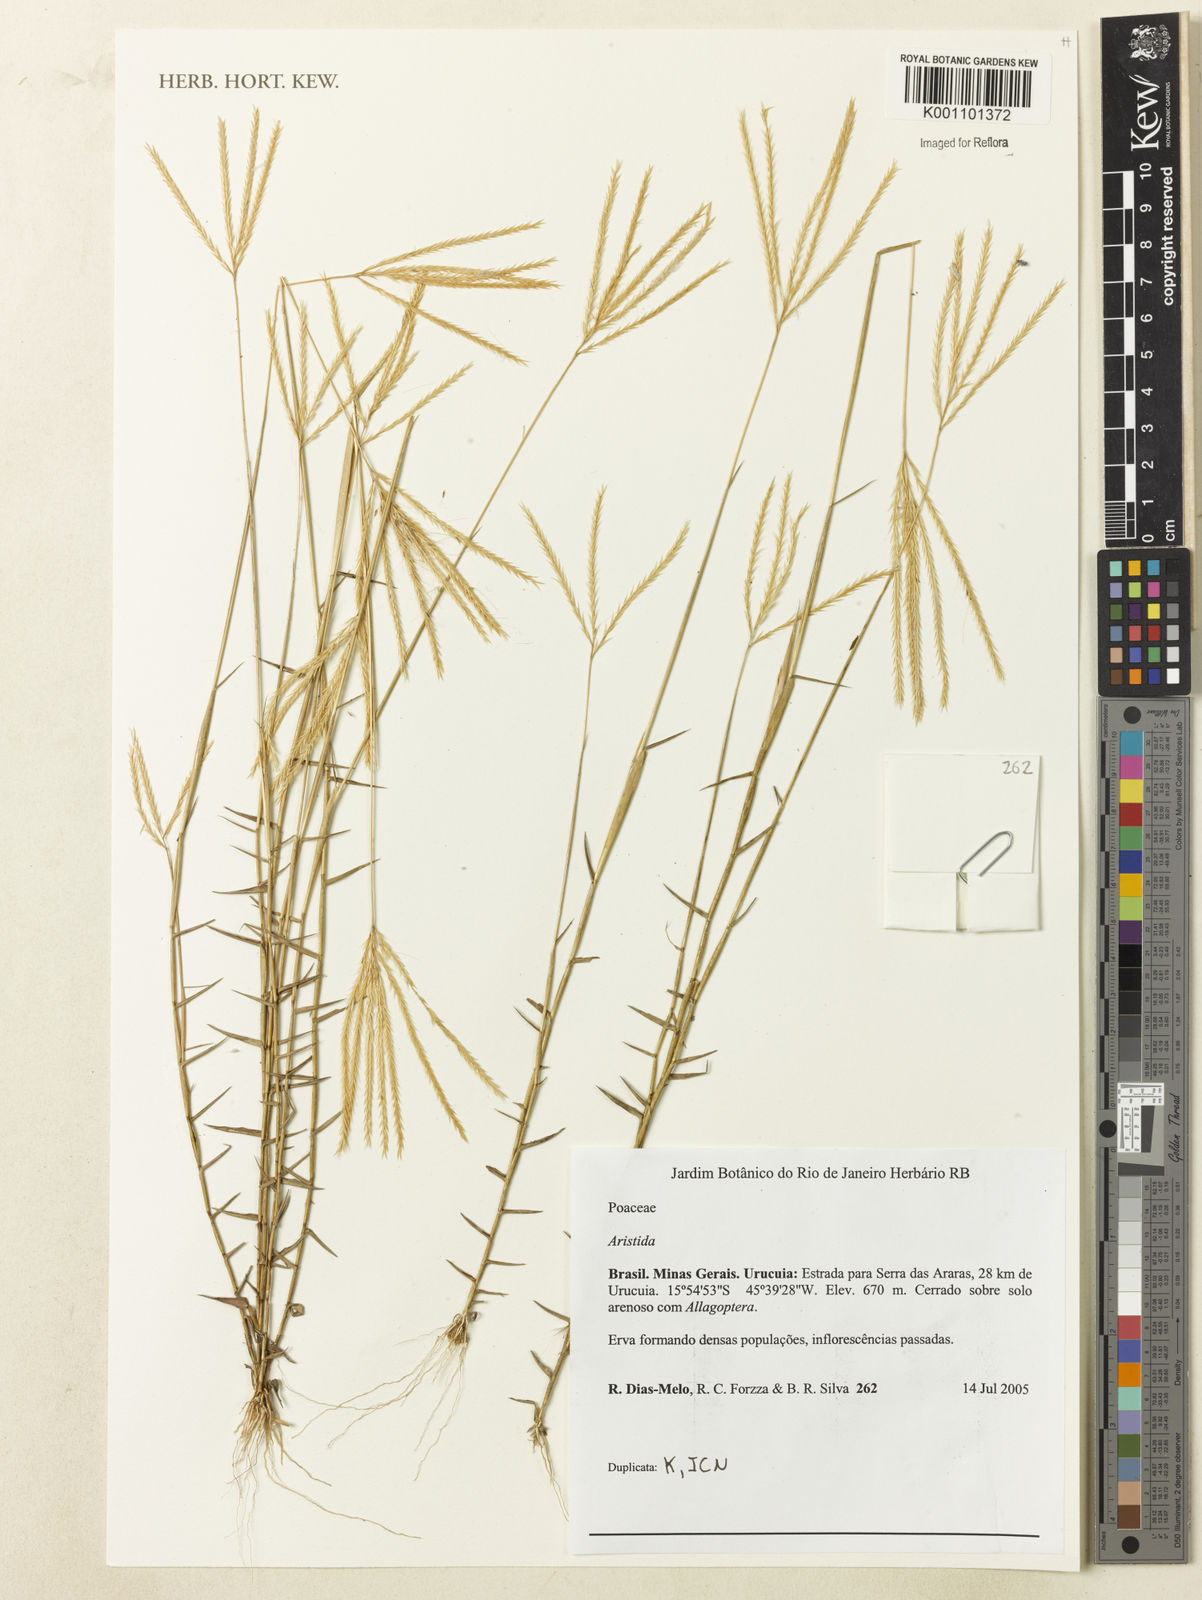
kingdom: Plantae
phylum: Tracheophyta
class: Liliopsida
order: Poales
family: Poaceae
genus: Aristida
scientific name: Aristida
